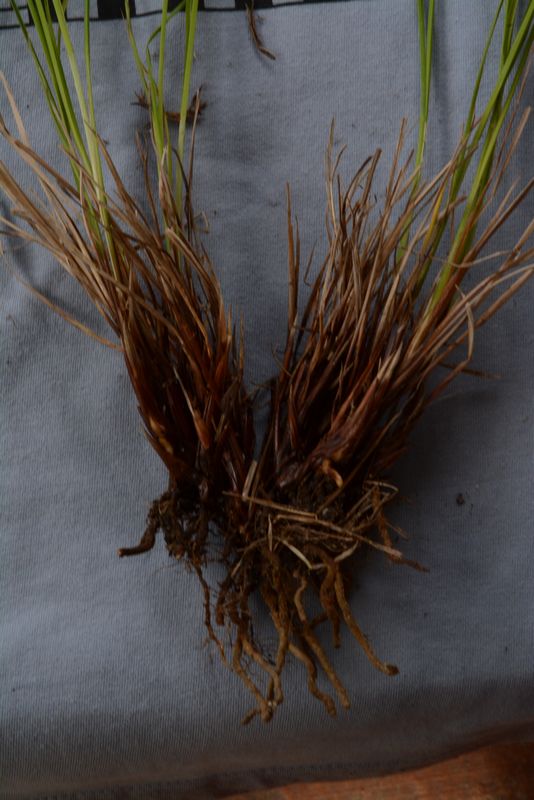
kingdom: Plantae
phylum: Tracheophyta
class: Liliopsida
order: Poales
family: Cyperaceae
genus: Carex
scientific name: Carex acuta
